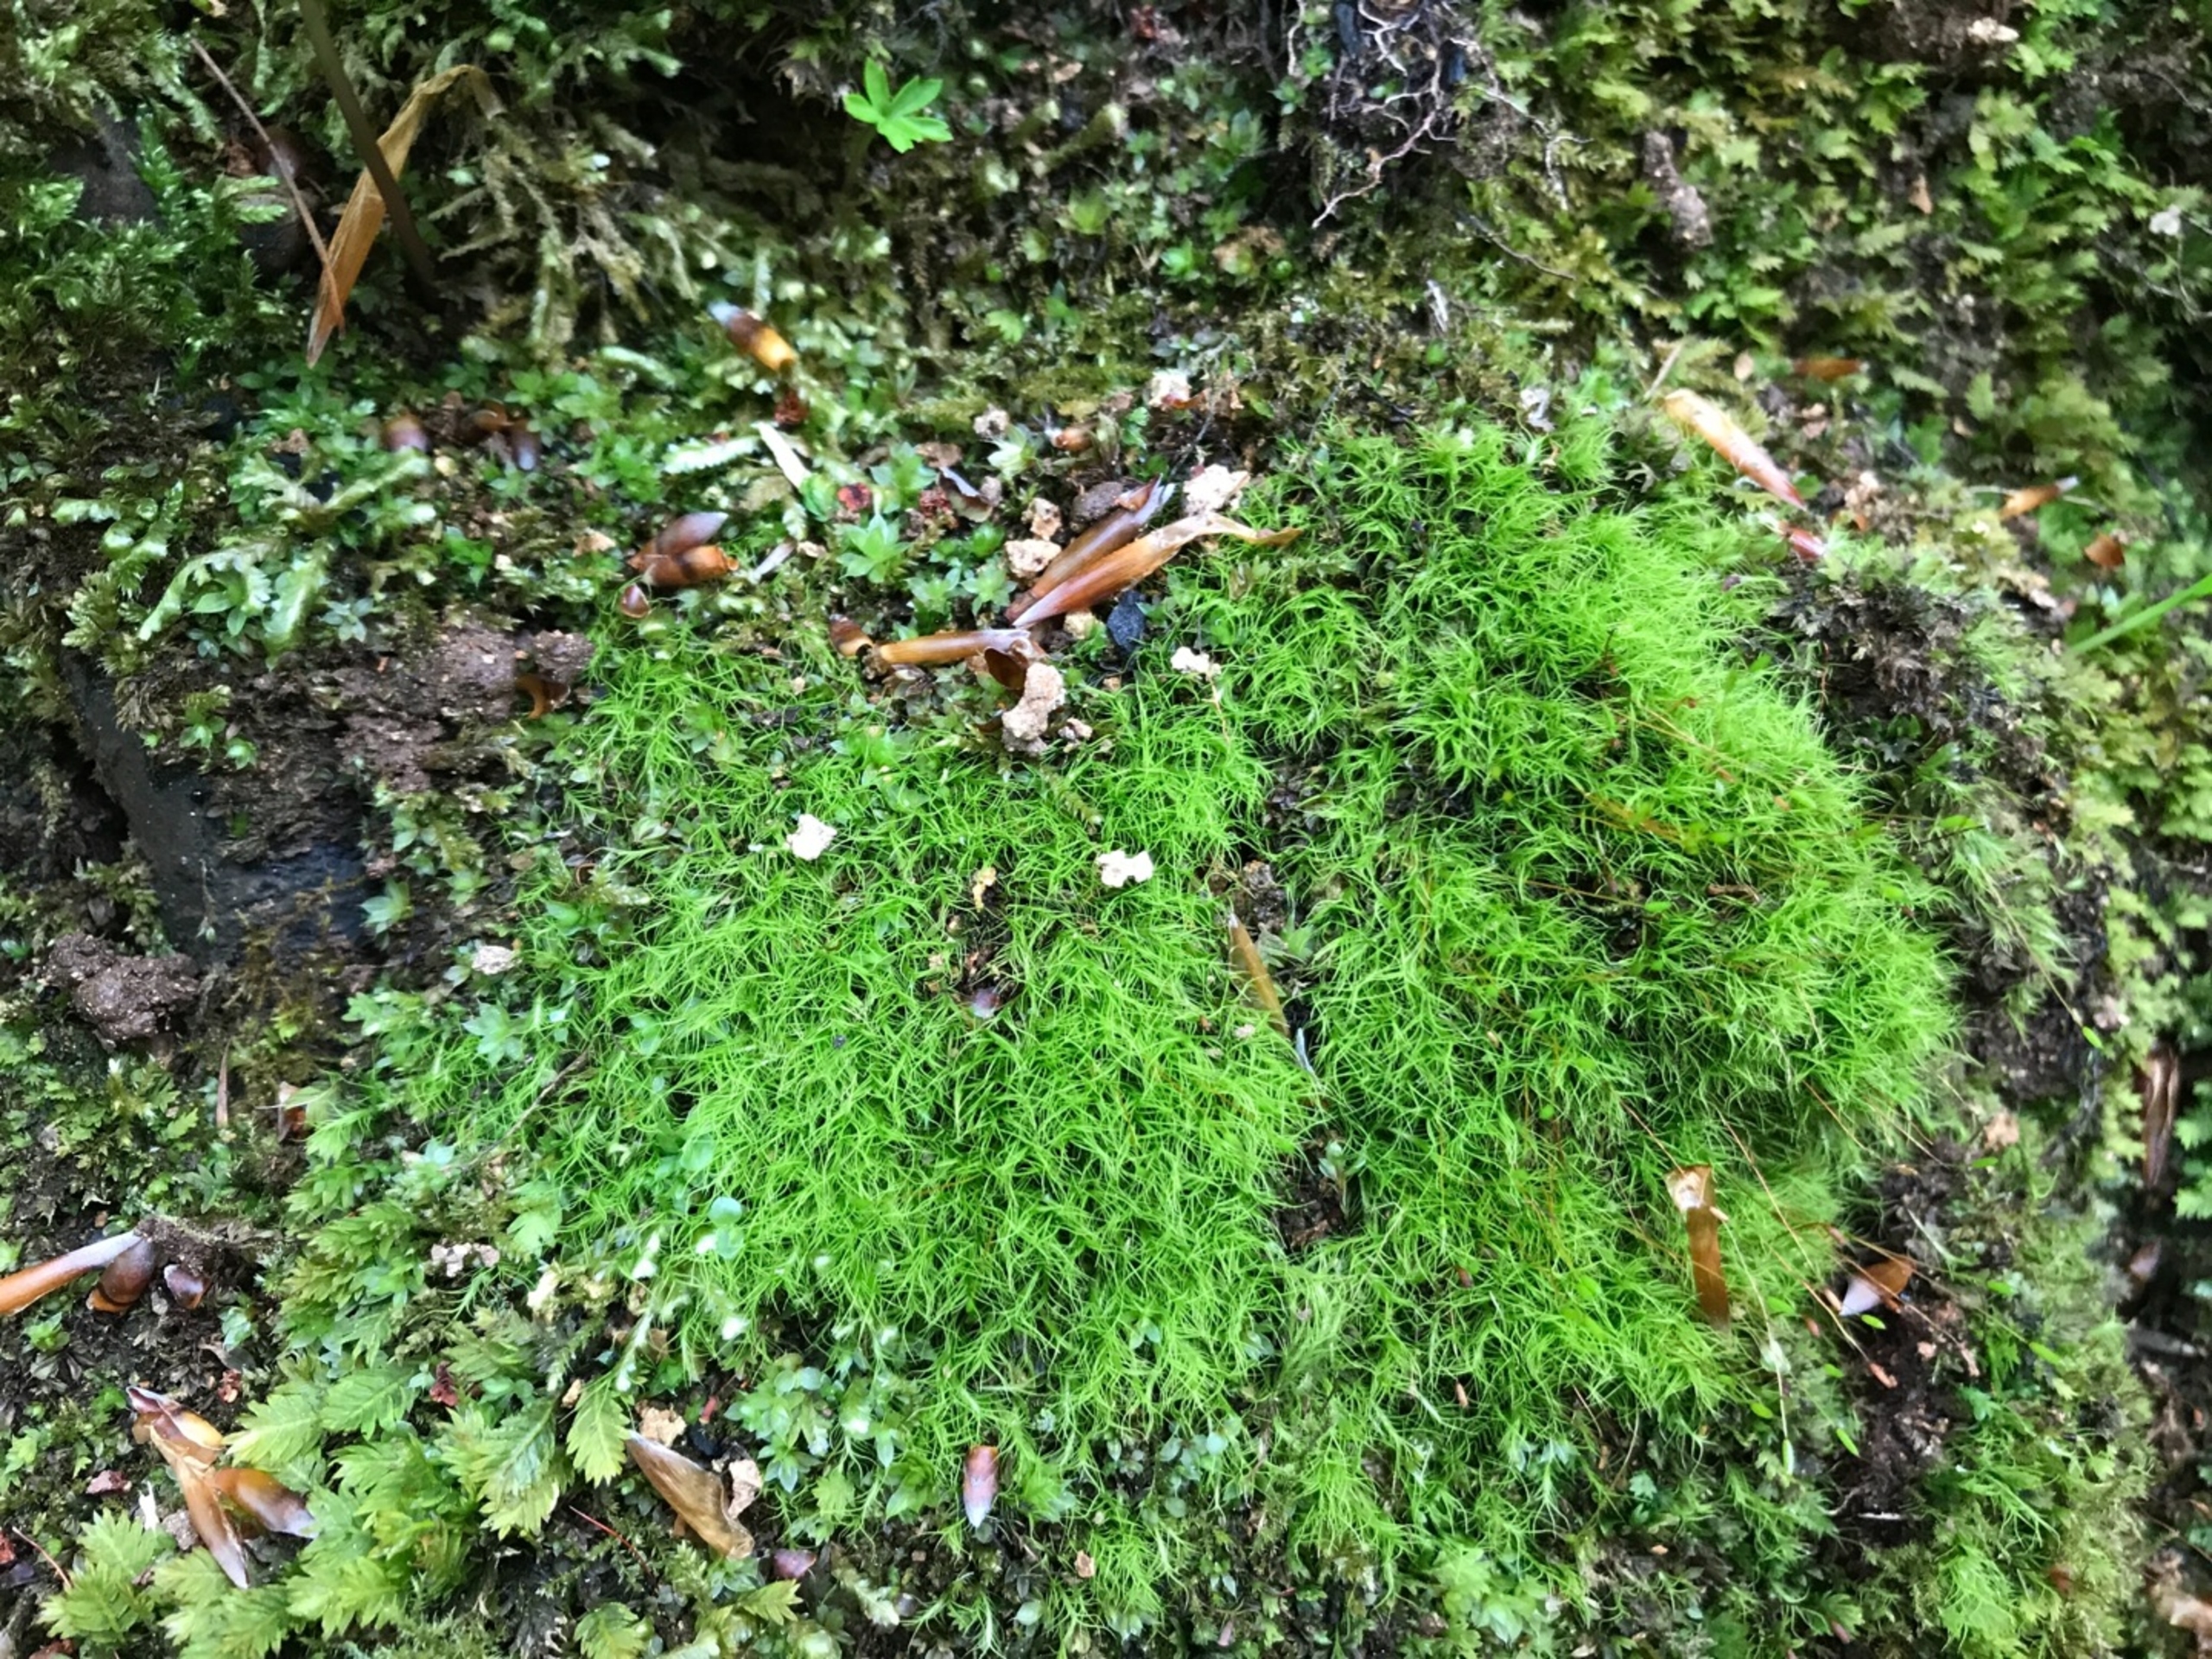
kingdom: Plantae
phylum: Bryophyta
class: Bryopsida
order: Scouleriales
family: Distichiaceae
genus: Distichium
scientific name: Distichium capillaceum
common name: Ret toradsmos
